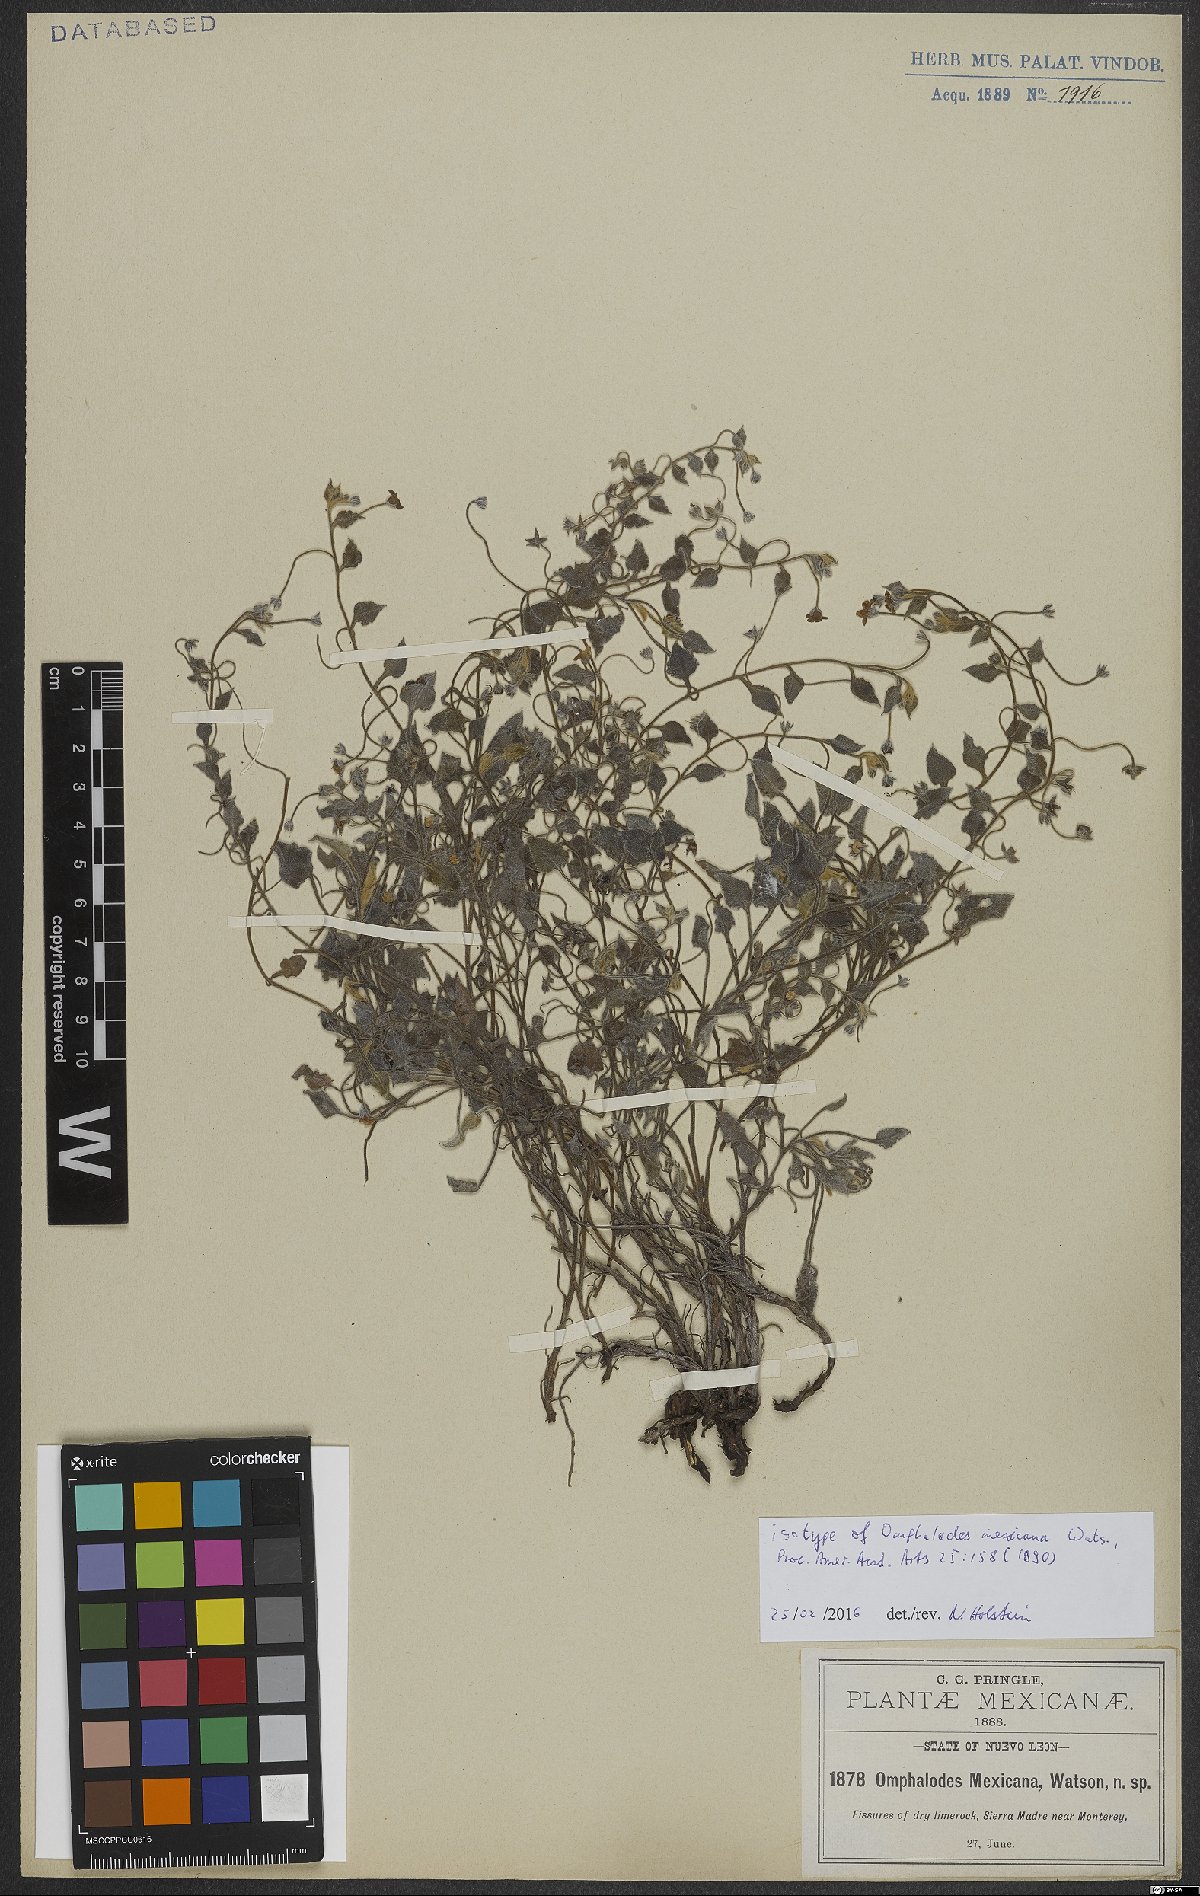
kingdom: Plantae
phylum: Tracheophyta
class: Magnoliopsida
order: Boraginales
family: Boraginaceae
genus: Mimophytum
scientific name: Mimophytum mexicanum
